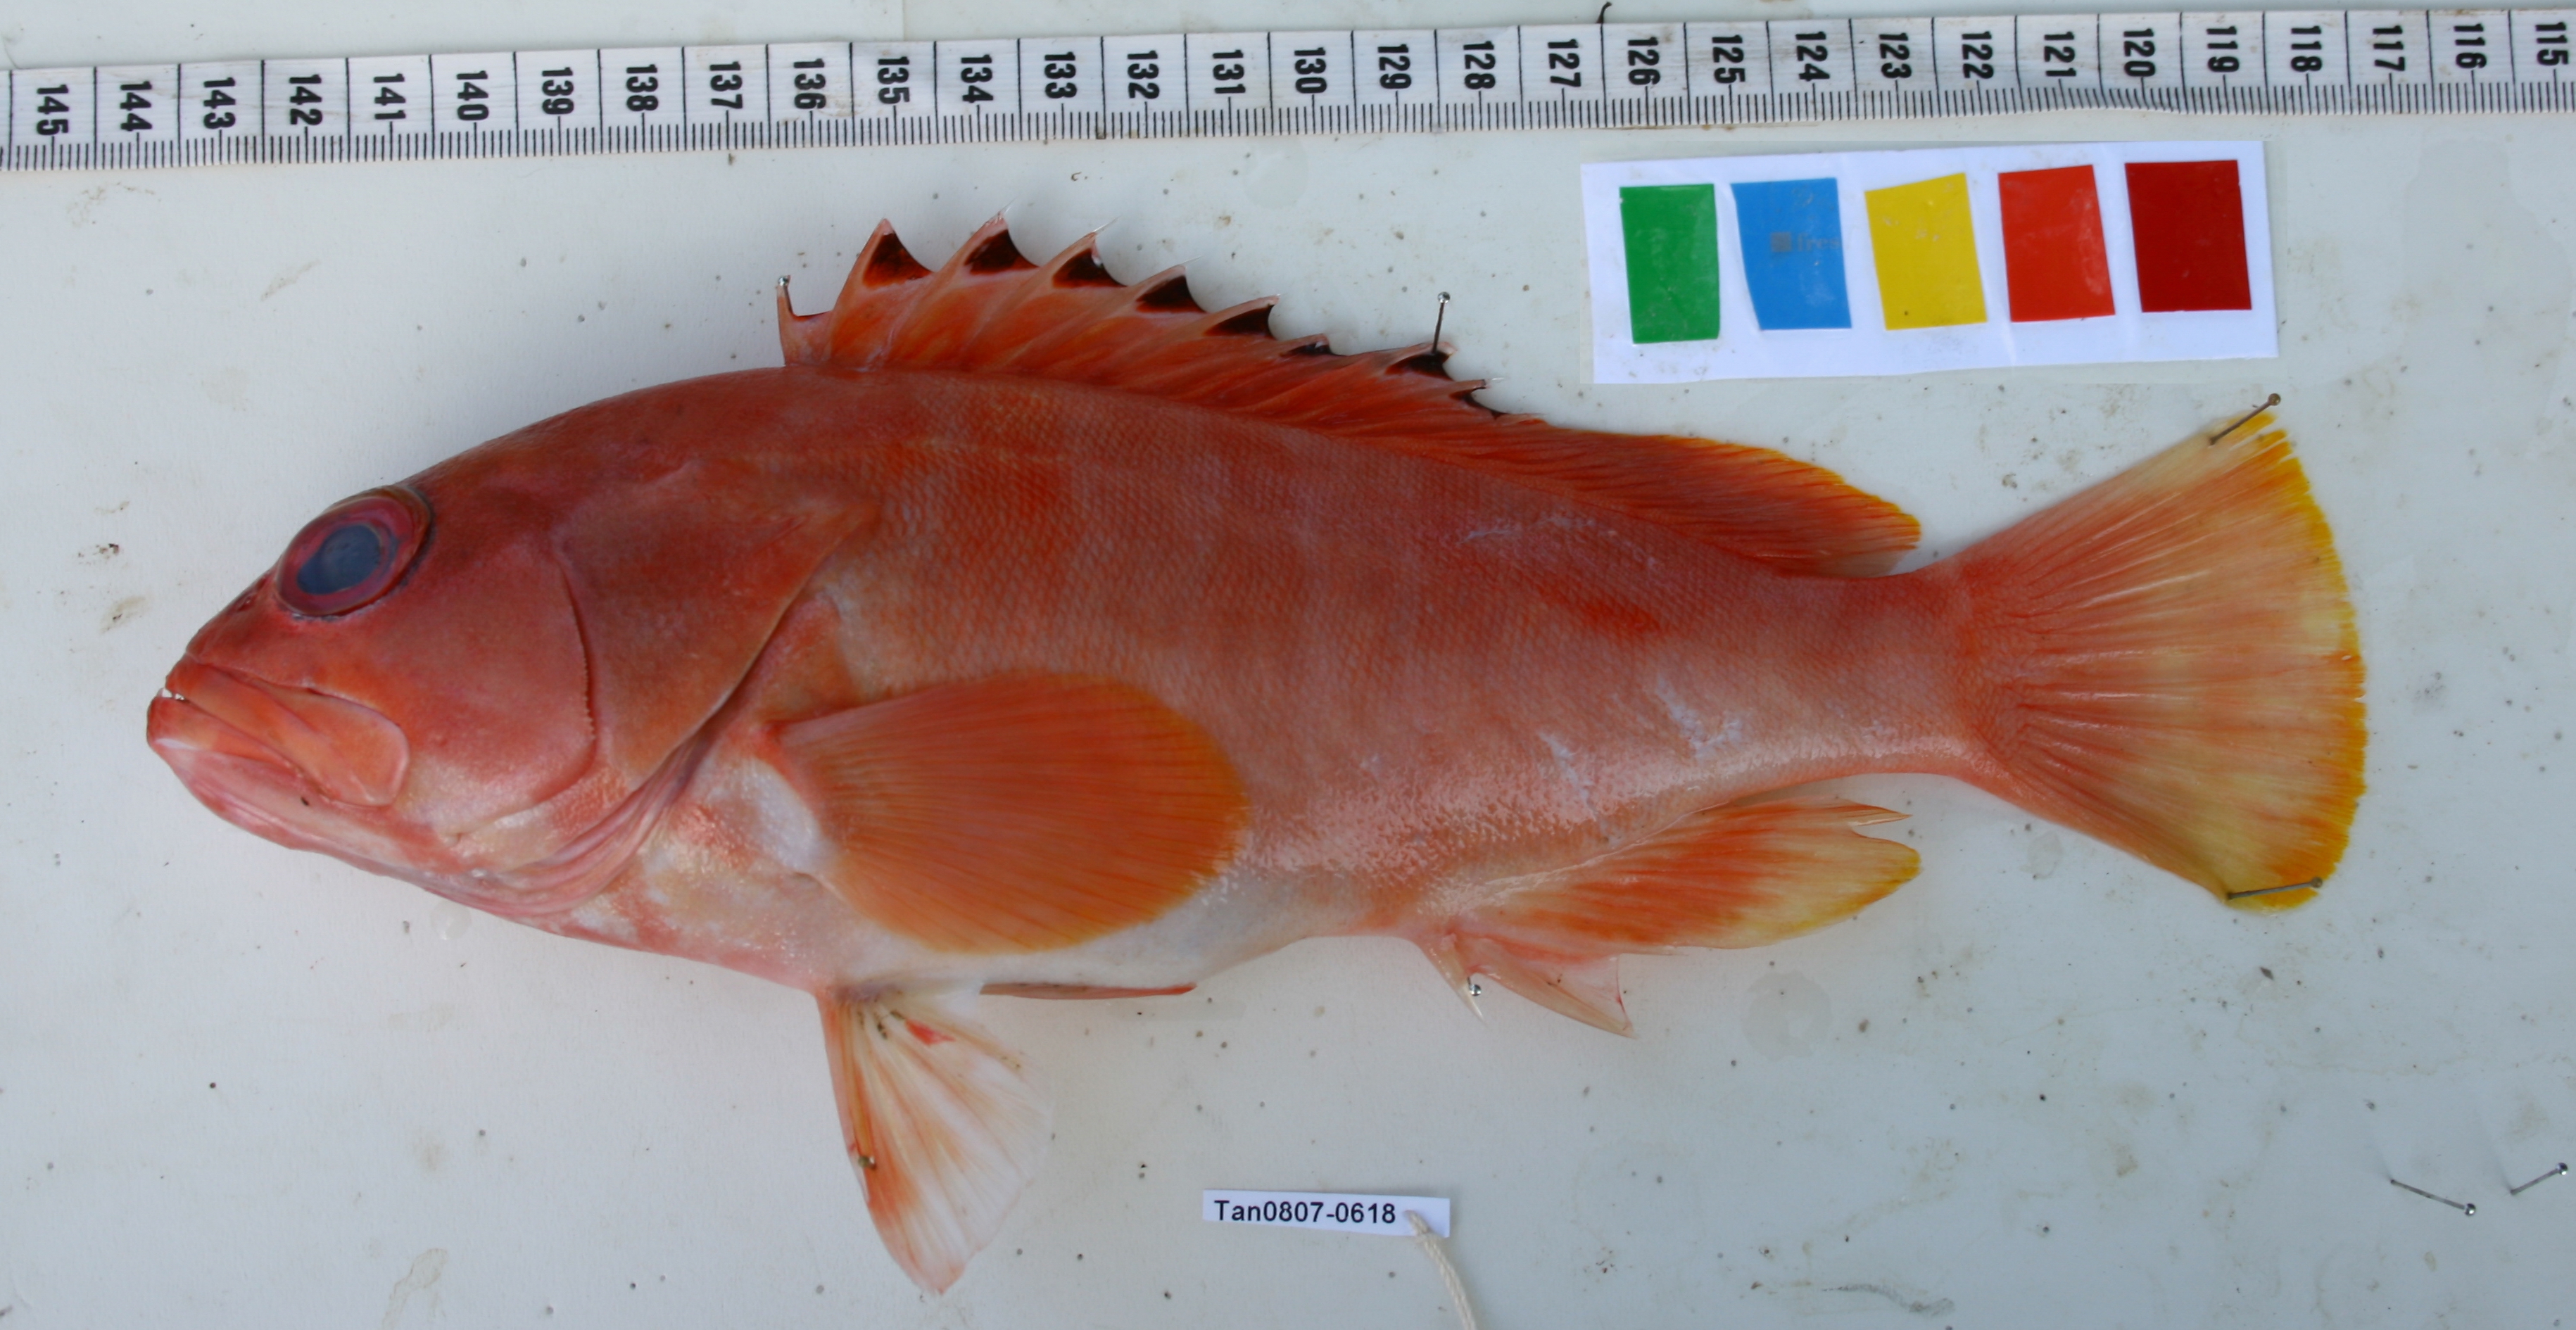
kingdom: Animalia
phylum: Chordata
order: Perciformes
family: Serranidae
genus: Epinephelus
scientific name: Epinephelus fasciatus
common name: Blacktip grouper
